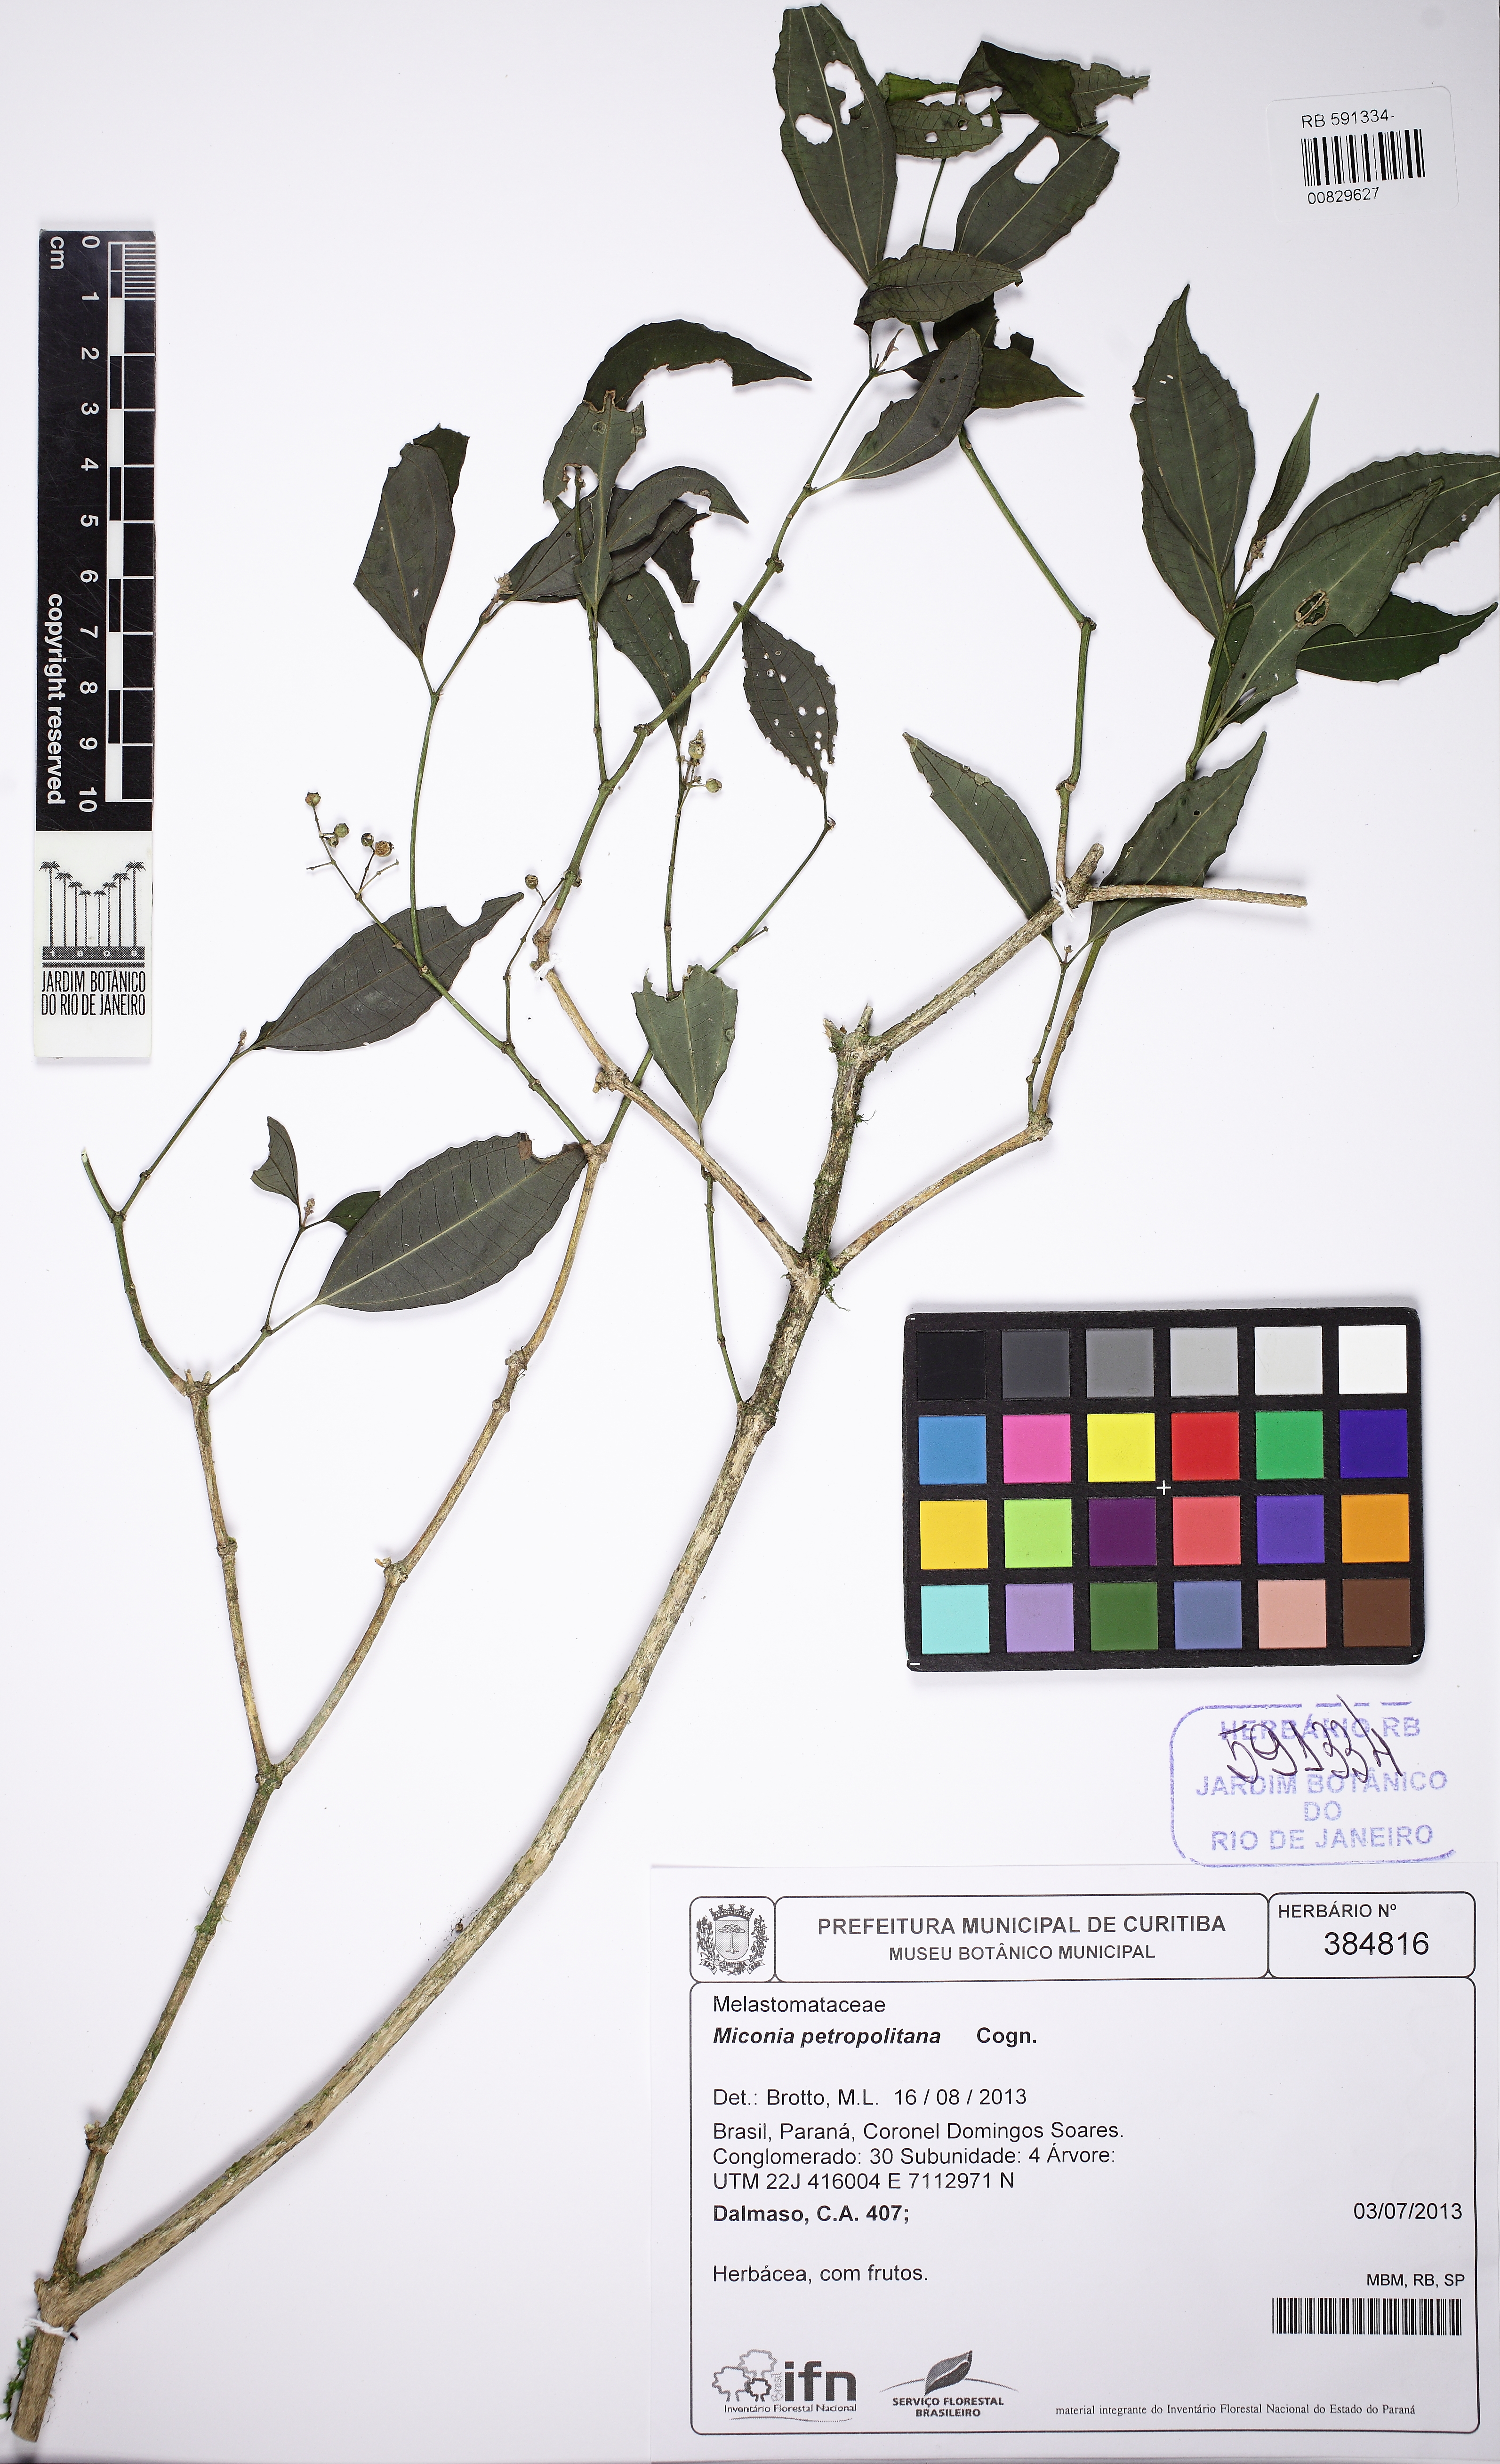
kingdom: Plantae
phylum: Tracheophyta
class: Magnoliopsida
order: Myrtales
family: Melastomataceae
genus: Miconia
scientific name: Miconia petropolitana
